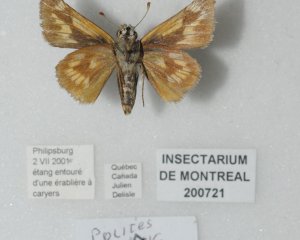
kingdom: Animalia
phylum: Arthropoda
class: Insecta
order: Lepidoptera
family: Hesperiidae
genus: Polites
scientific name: Polites
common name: Long Dash Skipper
